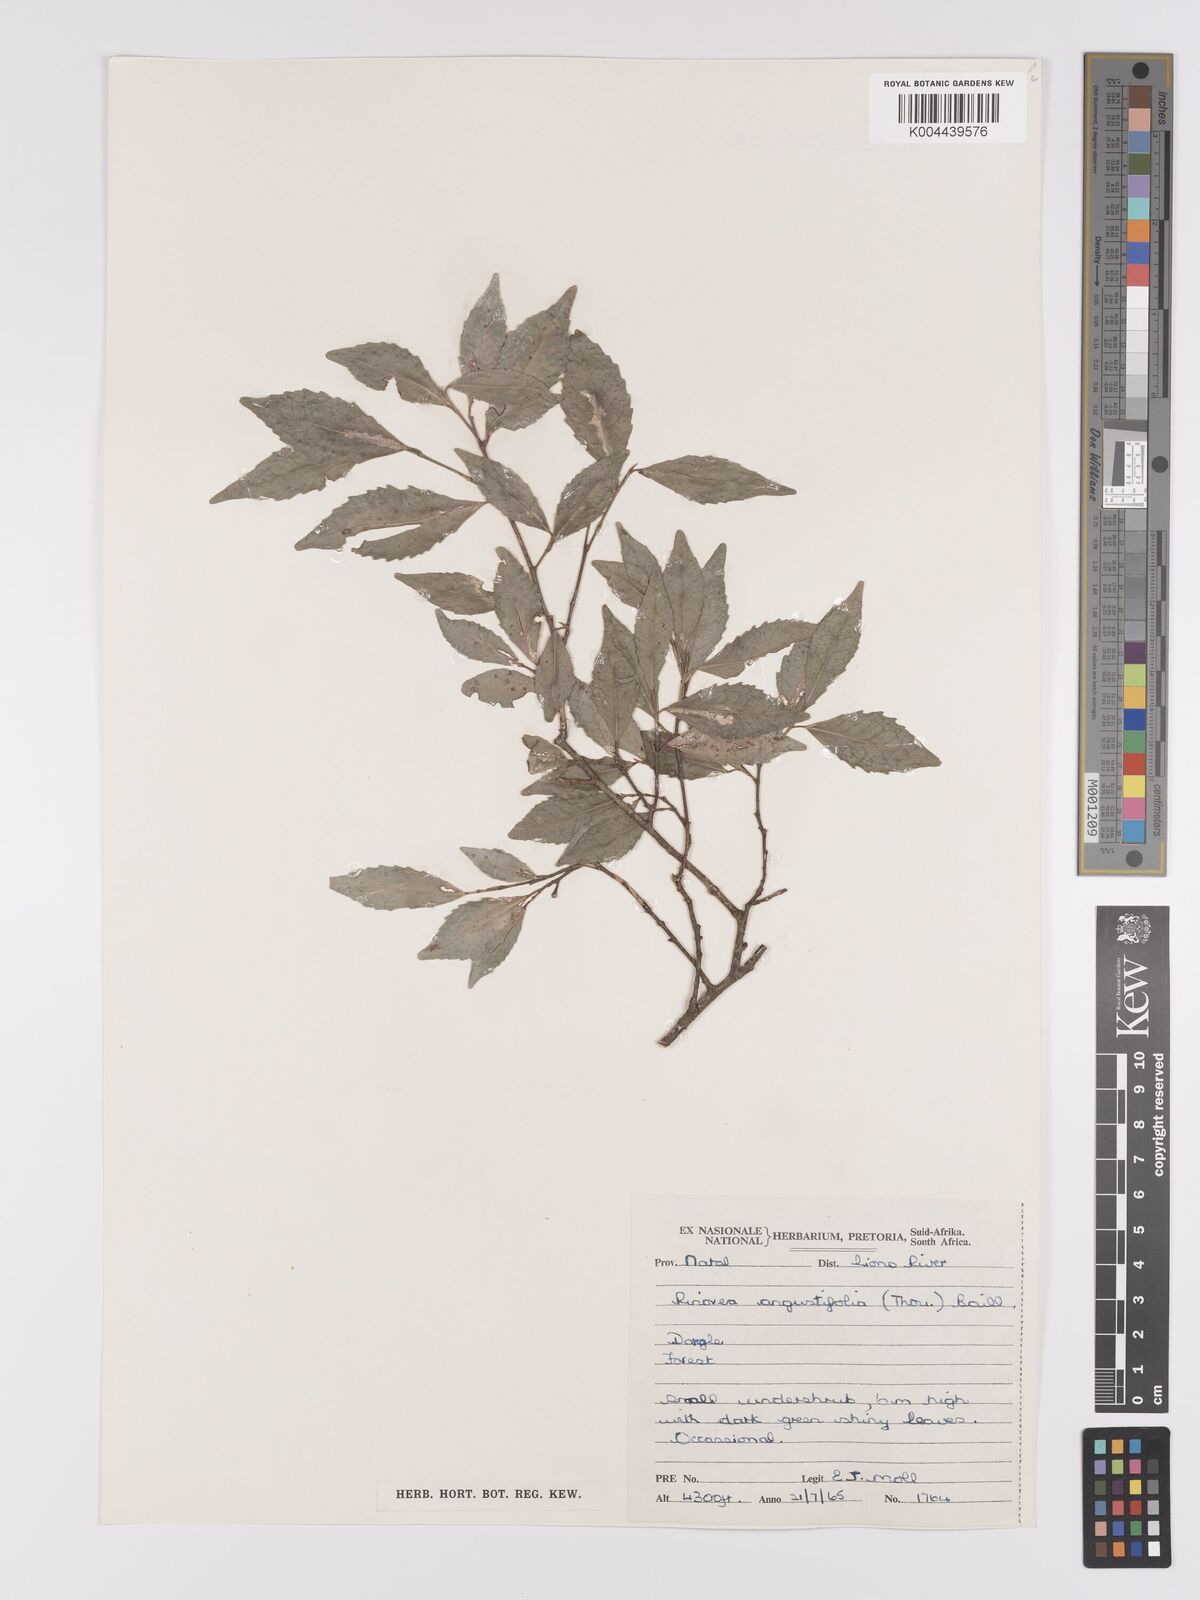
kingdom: Plantae
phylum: Tracheophyta
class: Magnoliopsida
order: Malpighiales
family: Violaceae
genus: Rinorea
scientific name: Rinorea angustifolia
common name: White violet-bush
